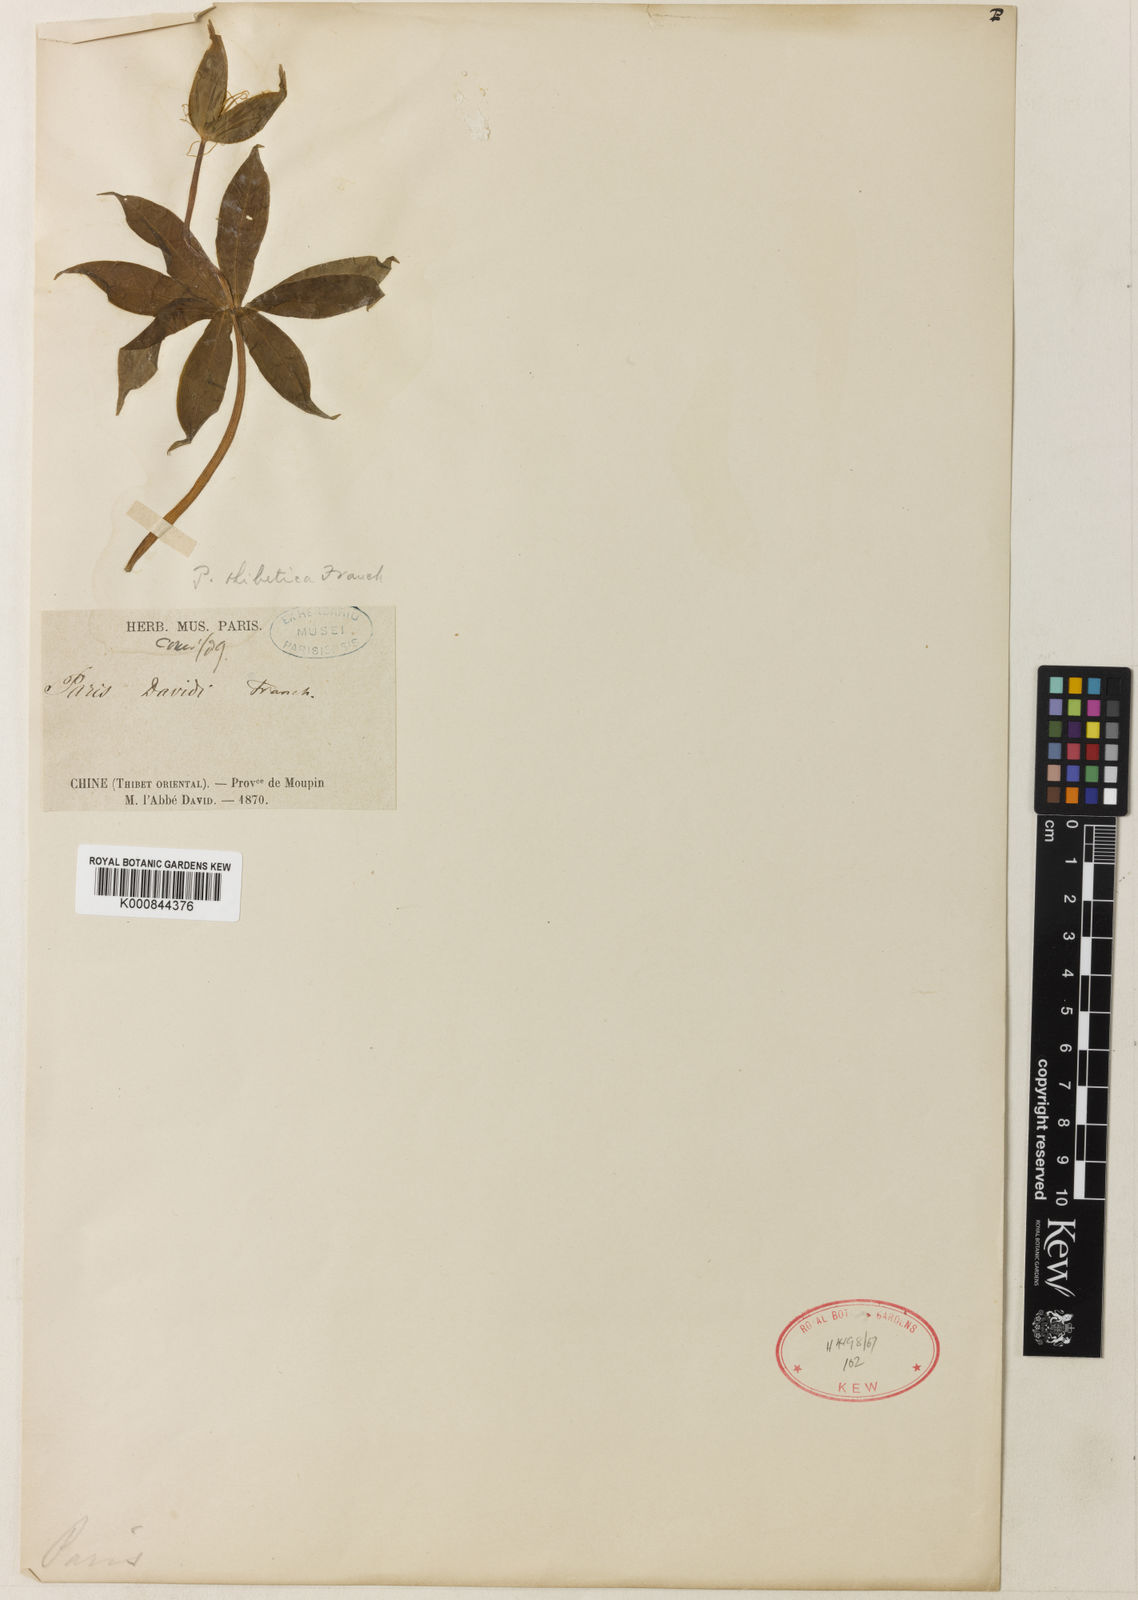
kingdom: Plantae
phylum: Tracheophyta
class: Liliopsida
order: Liliales
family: Melanthiaceae
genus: Paris
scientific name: Paris thibetica
